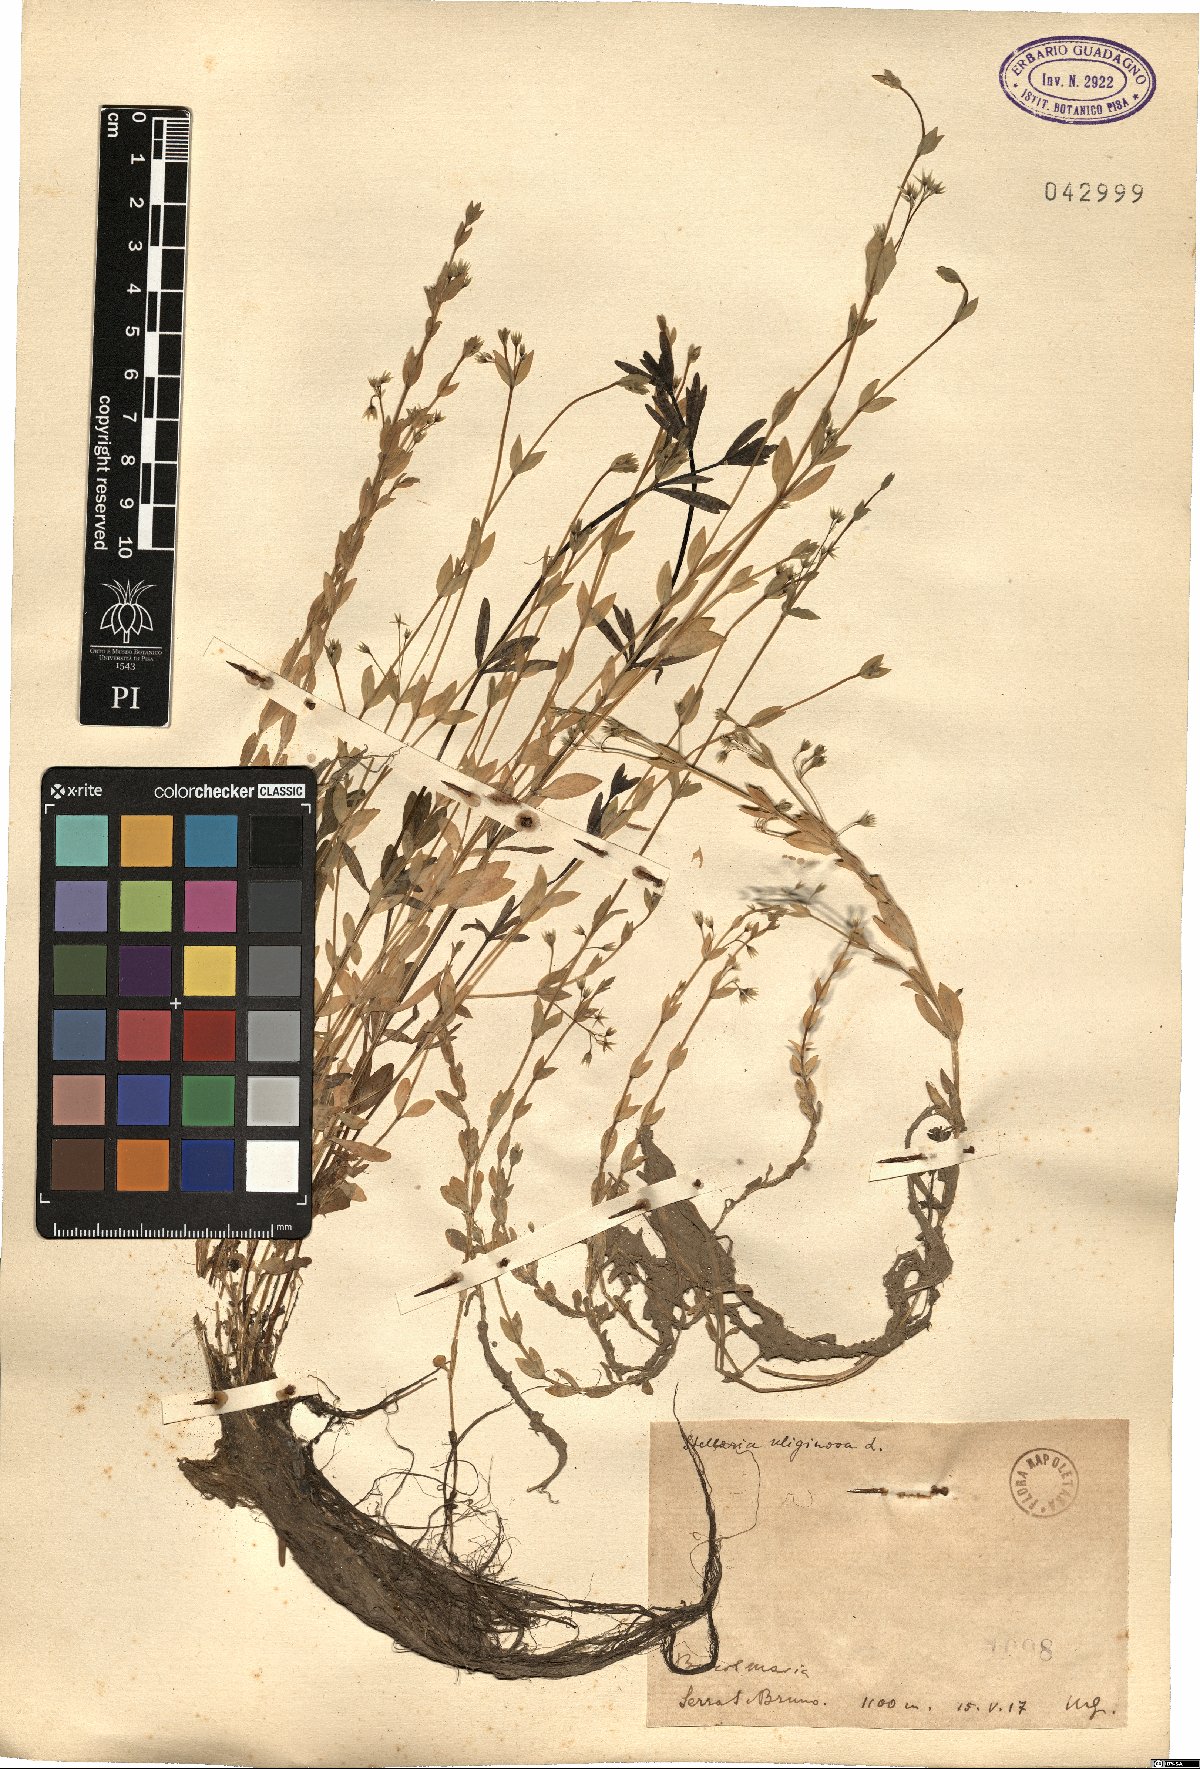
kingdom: Plantae
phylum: Tracheophyta
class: Magnoliopsida
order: Caryophyllales
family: Caryophyllaceae
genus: Stellaria
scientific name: Stellaria alsine
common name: Bog stitchwort
